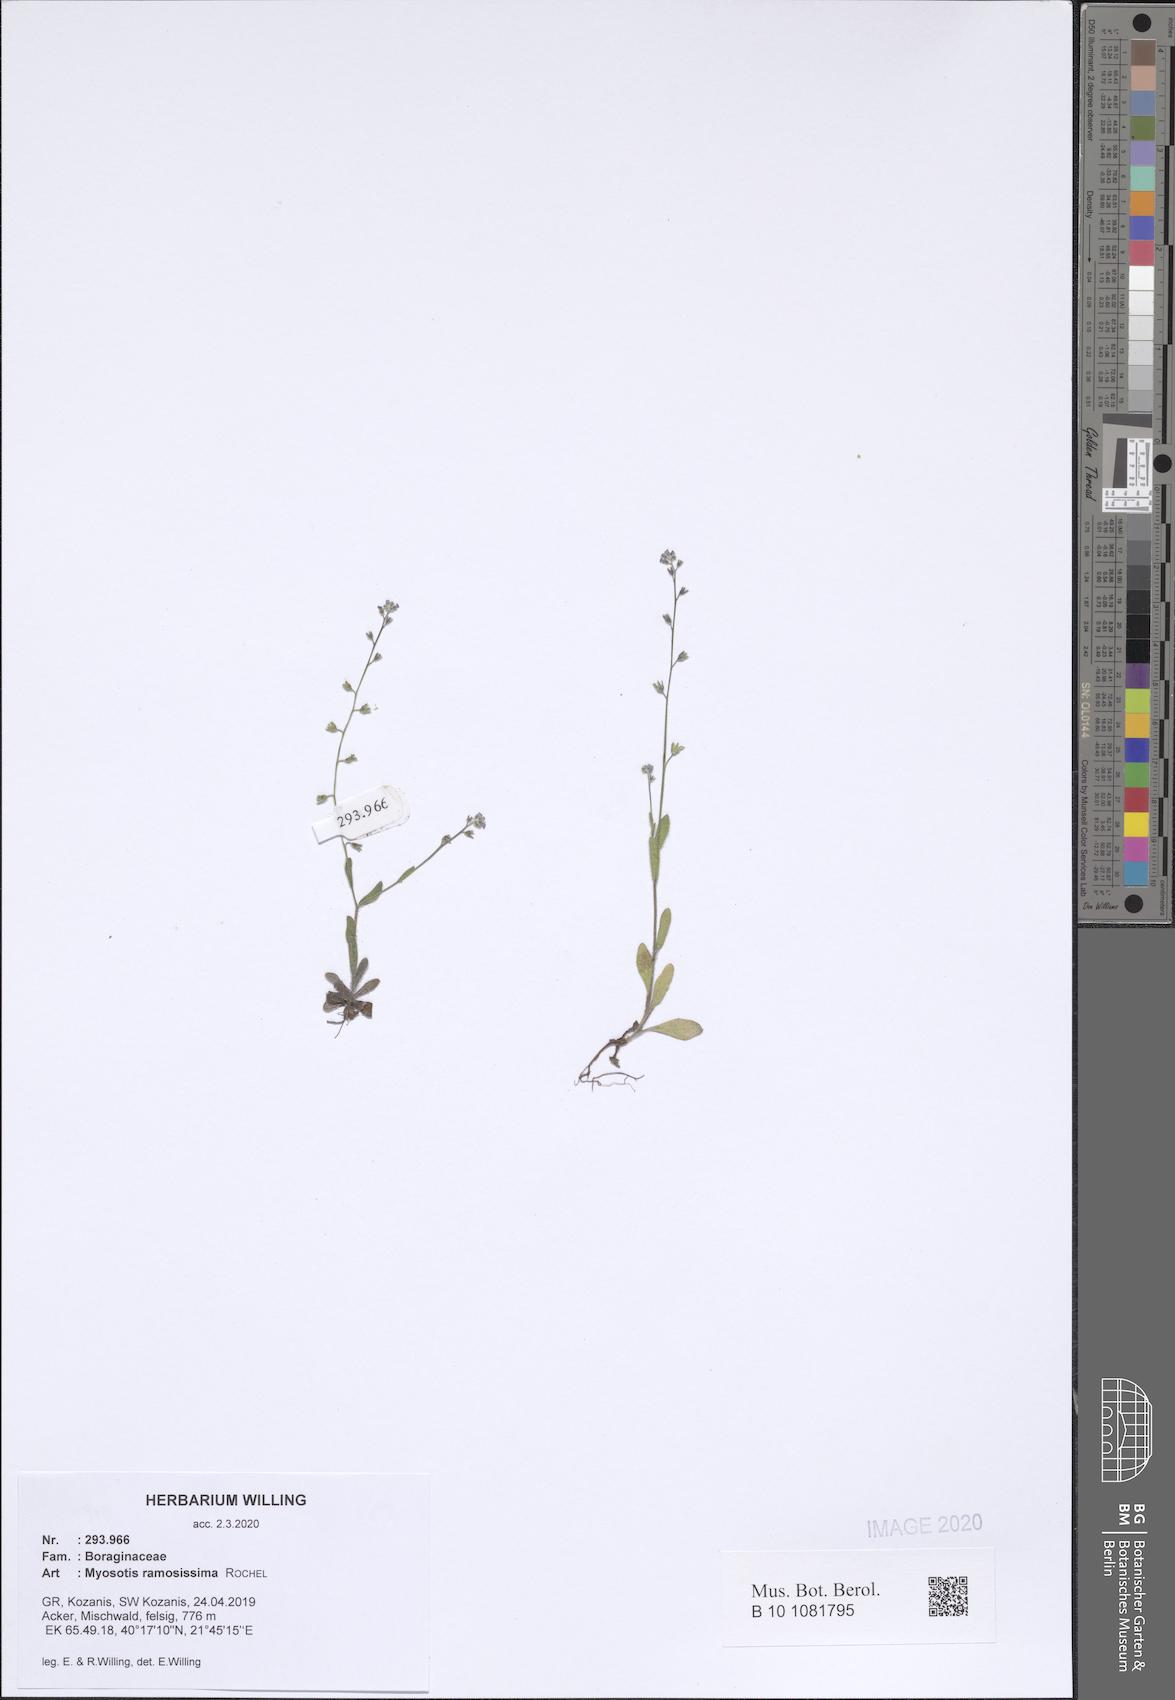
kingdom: Plantae
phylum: Tracheophyta
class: Magnoliopsida
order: Boraginales
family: Boraginaceae
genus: Myosotis
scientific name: Myosotis ramosissima
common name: Early forget-me-not
